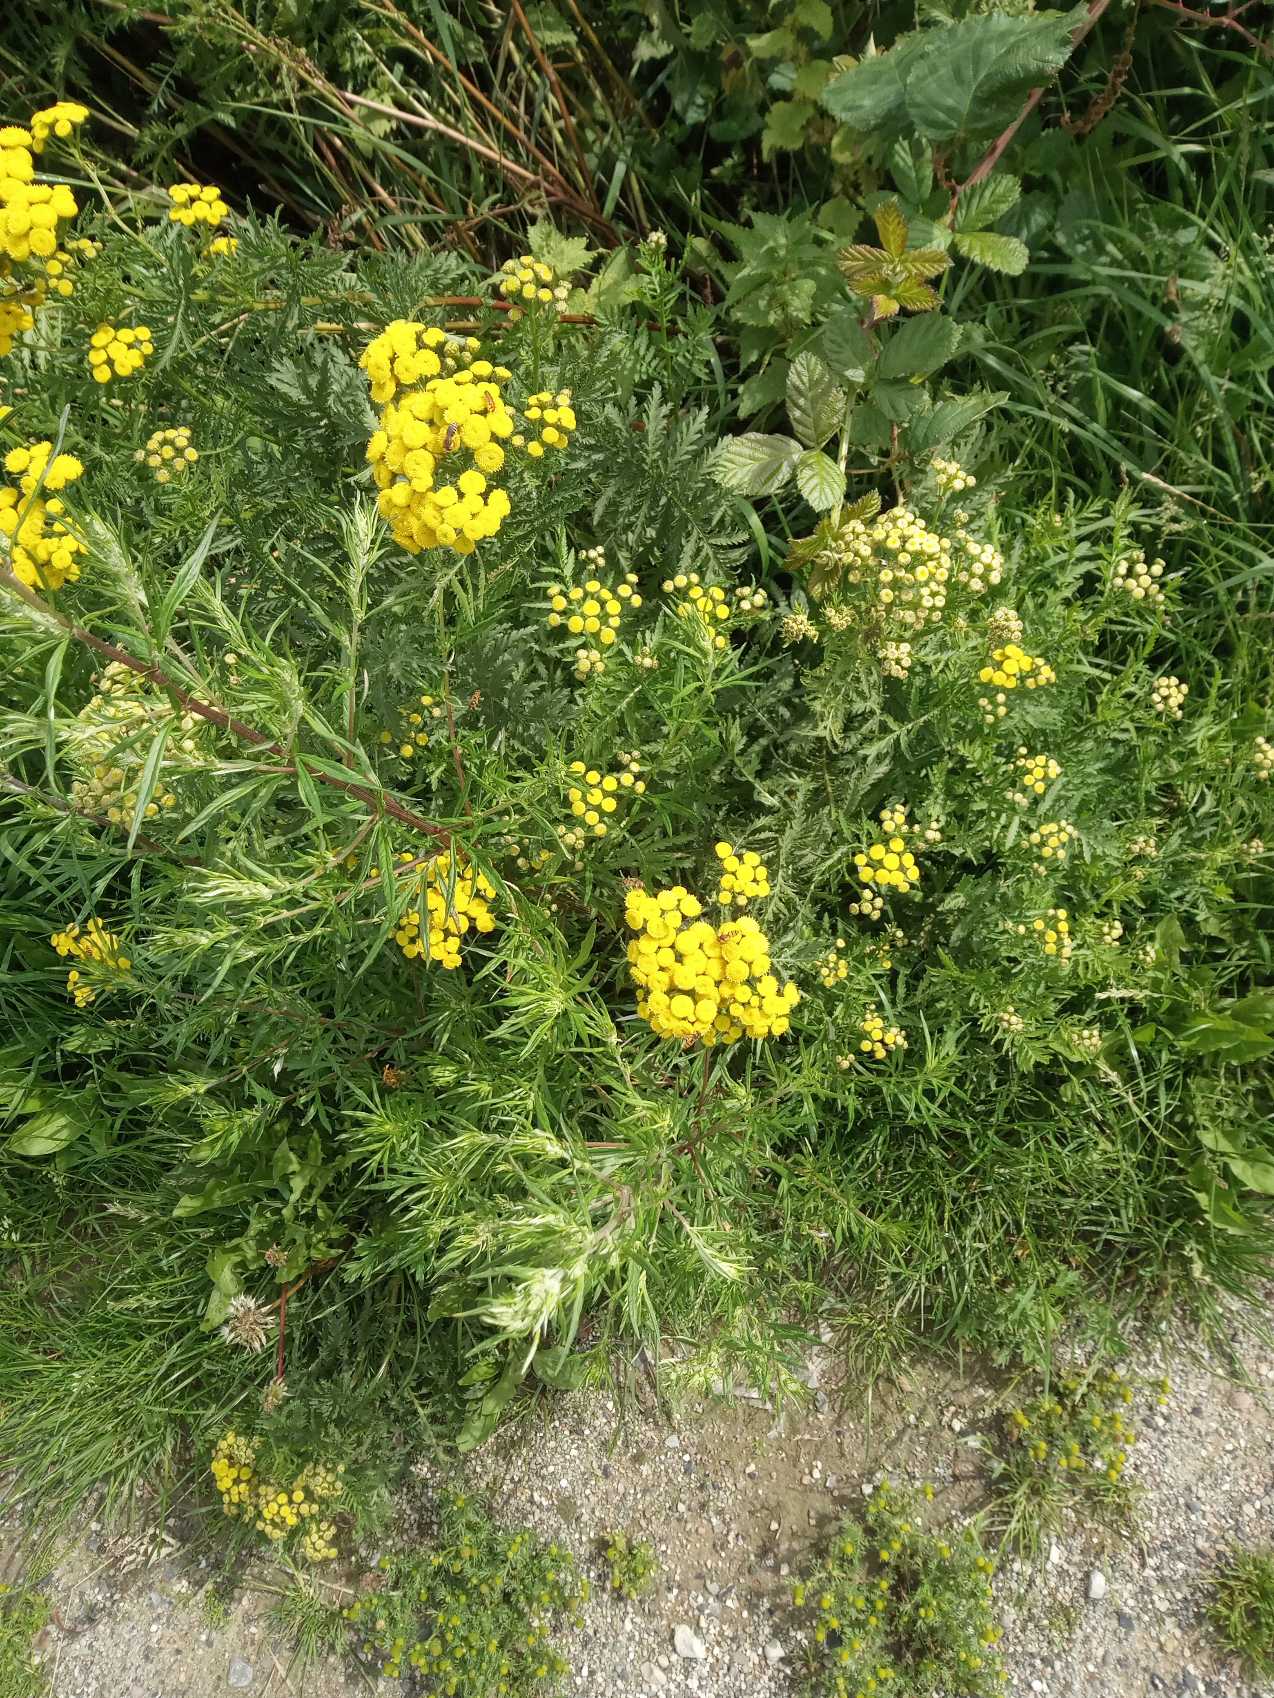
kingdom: Plantae
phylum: Tracheophyta
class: Magnoliopsida
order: Asterales
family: Asteraceae
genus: Tanacetum
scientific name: Tanacetum vulgare
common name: Rejnfan
